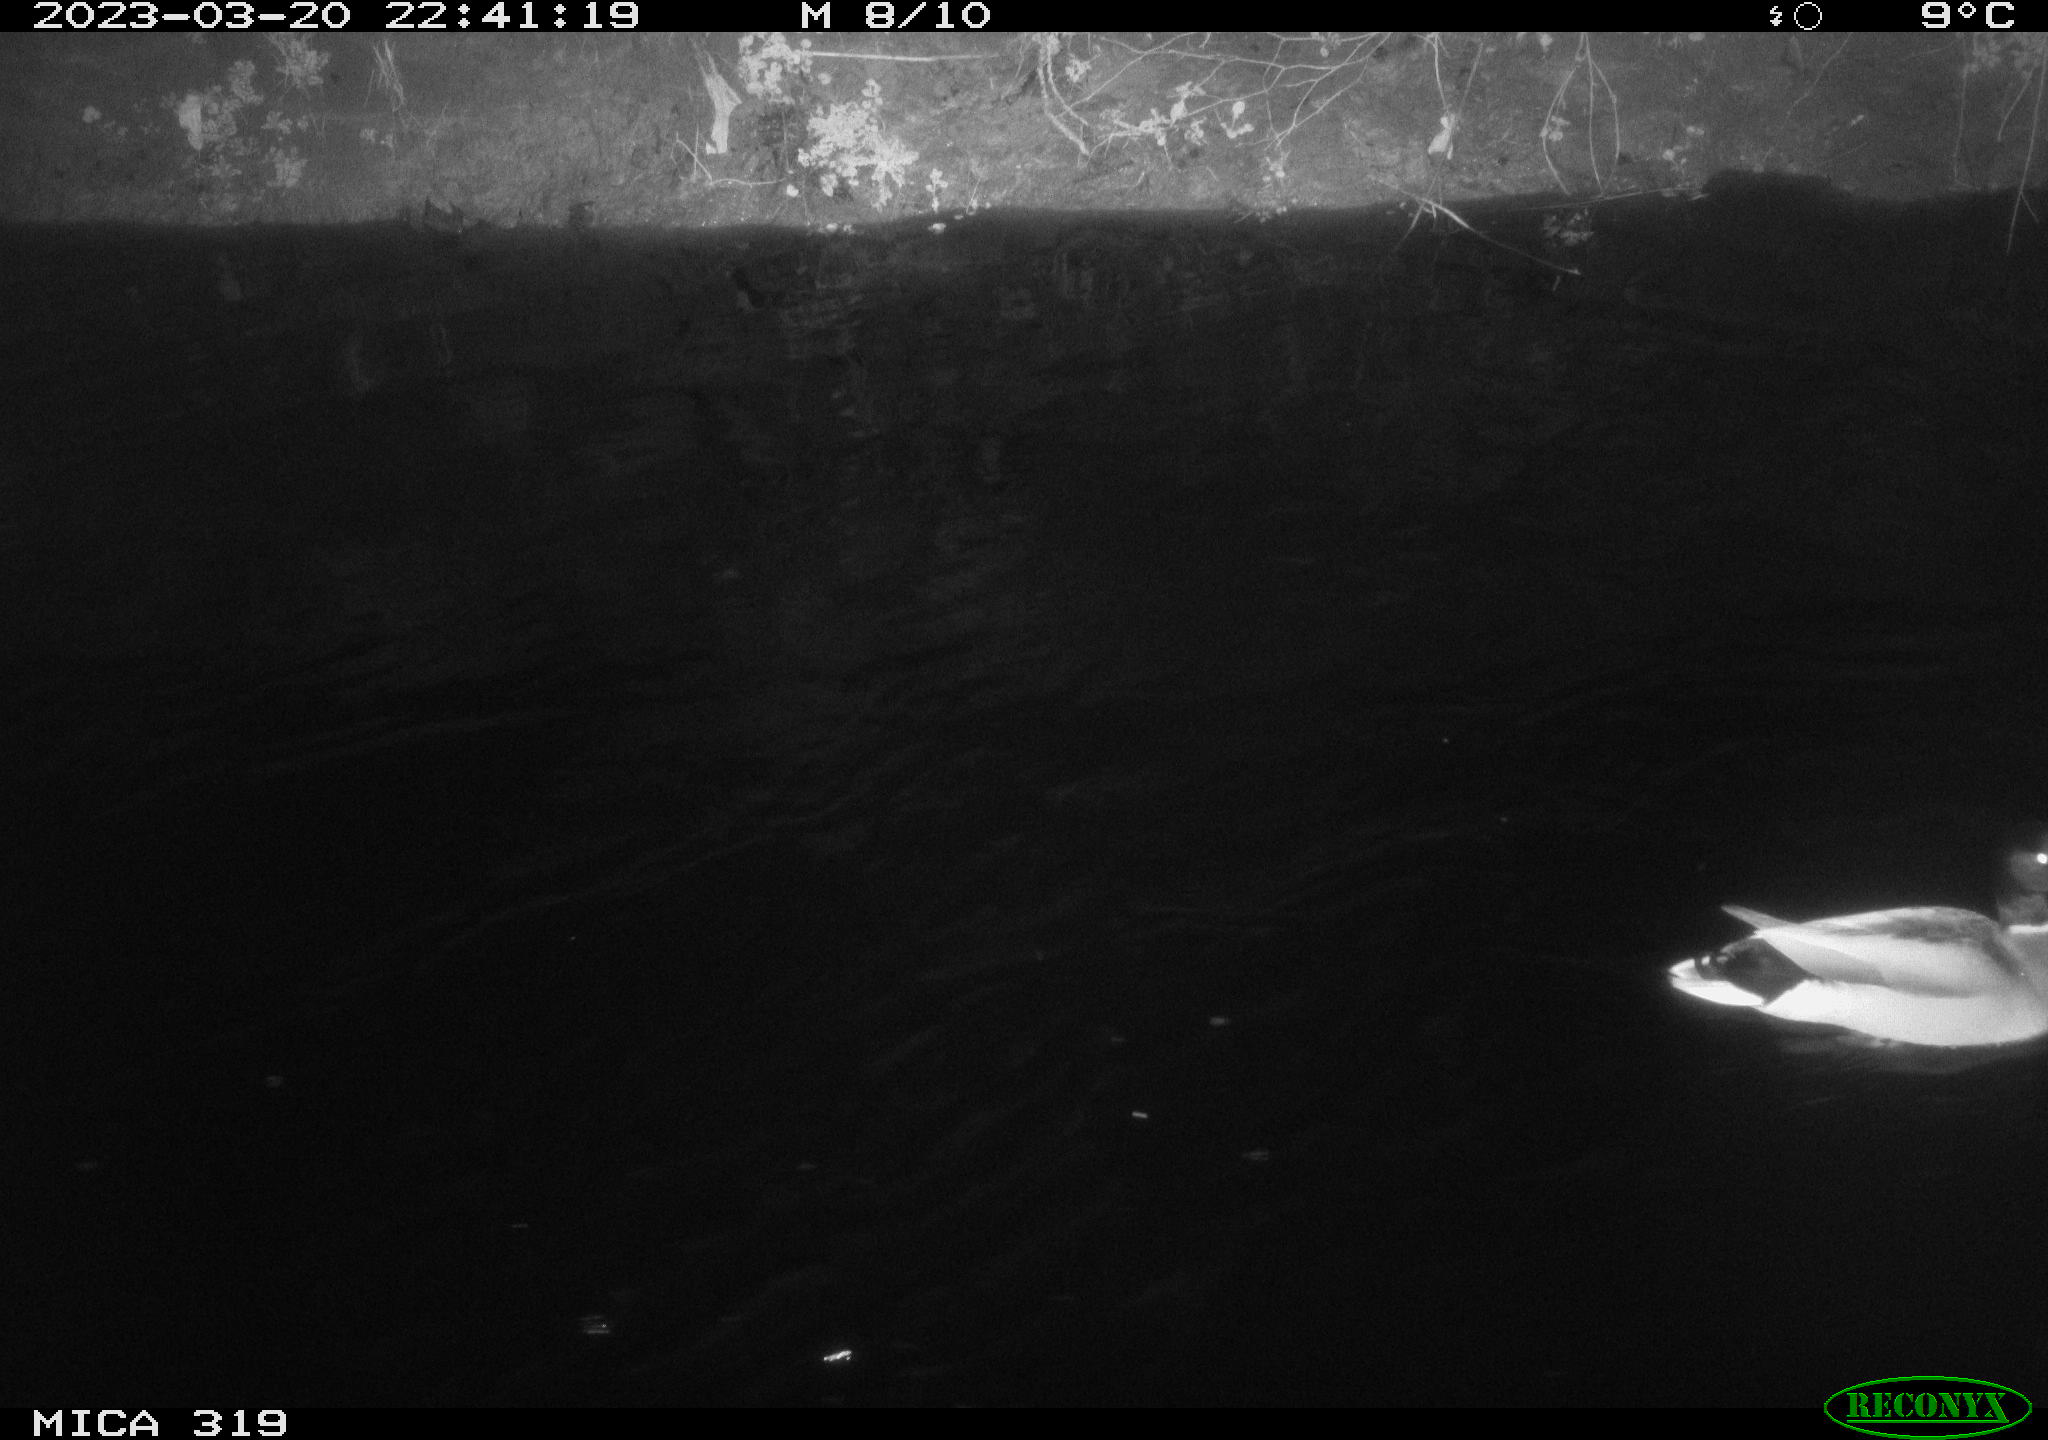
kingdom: Animalia
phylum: Chordata
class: Aves
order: Anseriformes
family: Anatidae
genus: Anas
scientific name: Anas
